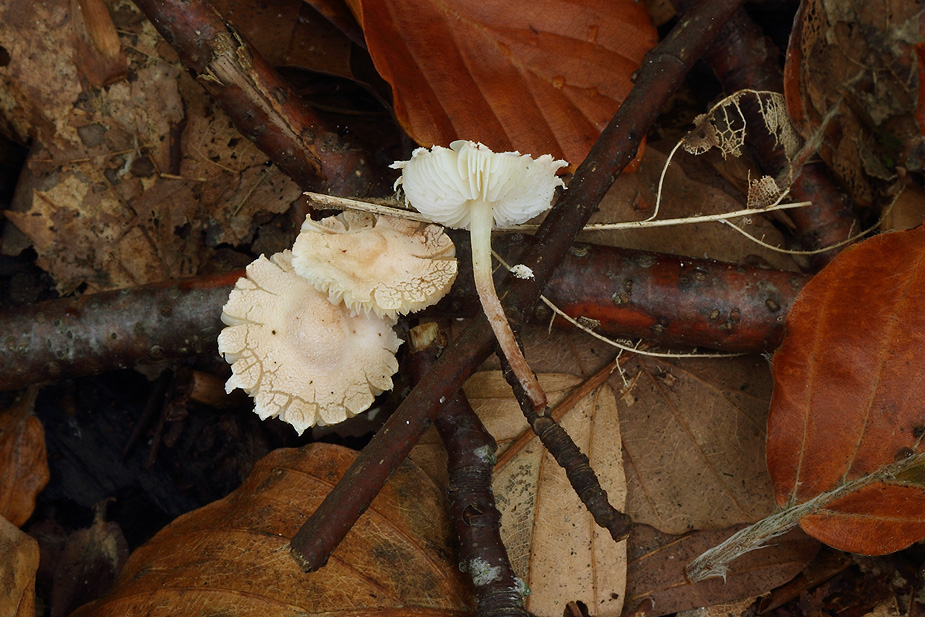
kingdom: Fungi
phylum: Basidiomycota
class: Agaricomycetes
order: Agaricales
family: Agaricaceae
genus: Cystolepiota
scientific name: Cystolepiota seminuda
